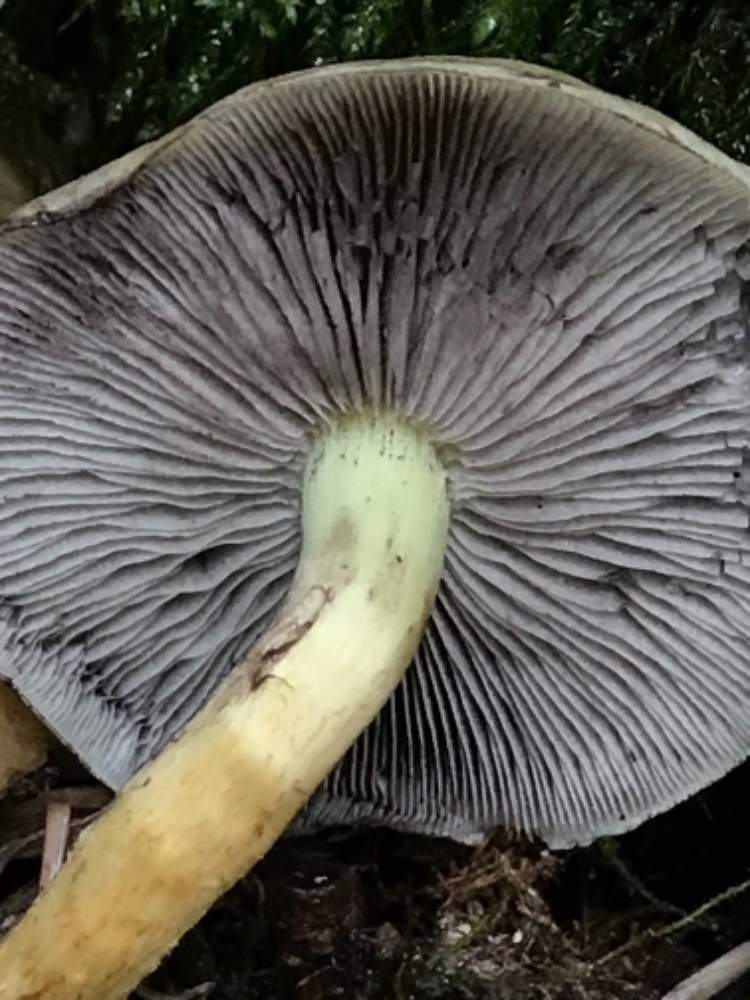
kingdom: Fungi
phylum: Basidiomycota
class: Agaricomycetes
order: Agaricales
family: Strophariaceae
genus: Hypholoma
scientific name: Hypholoma fasciculare
